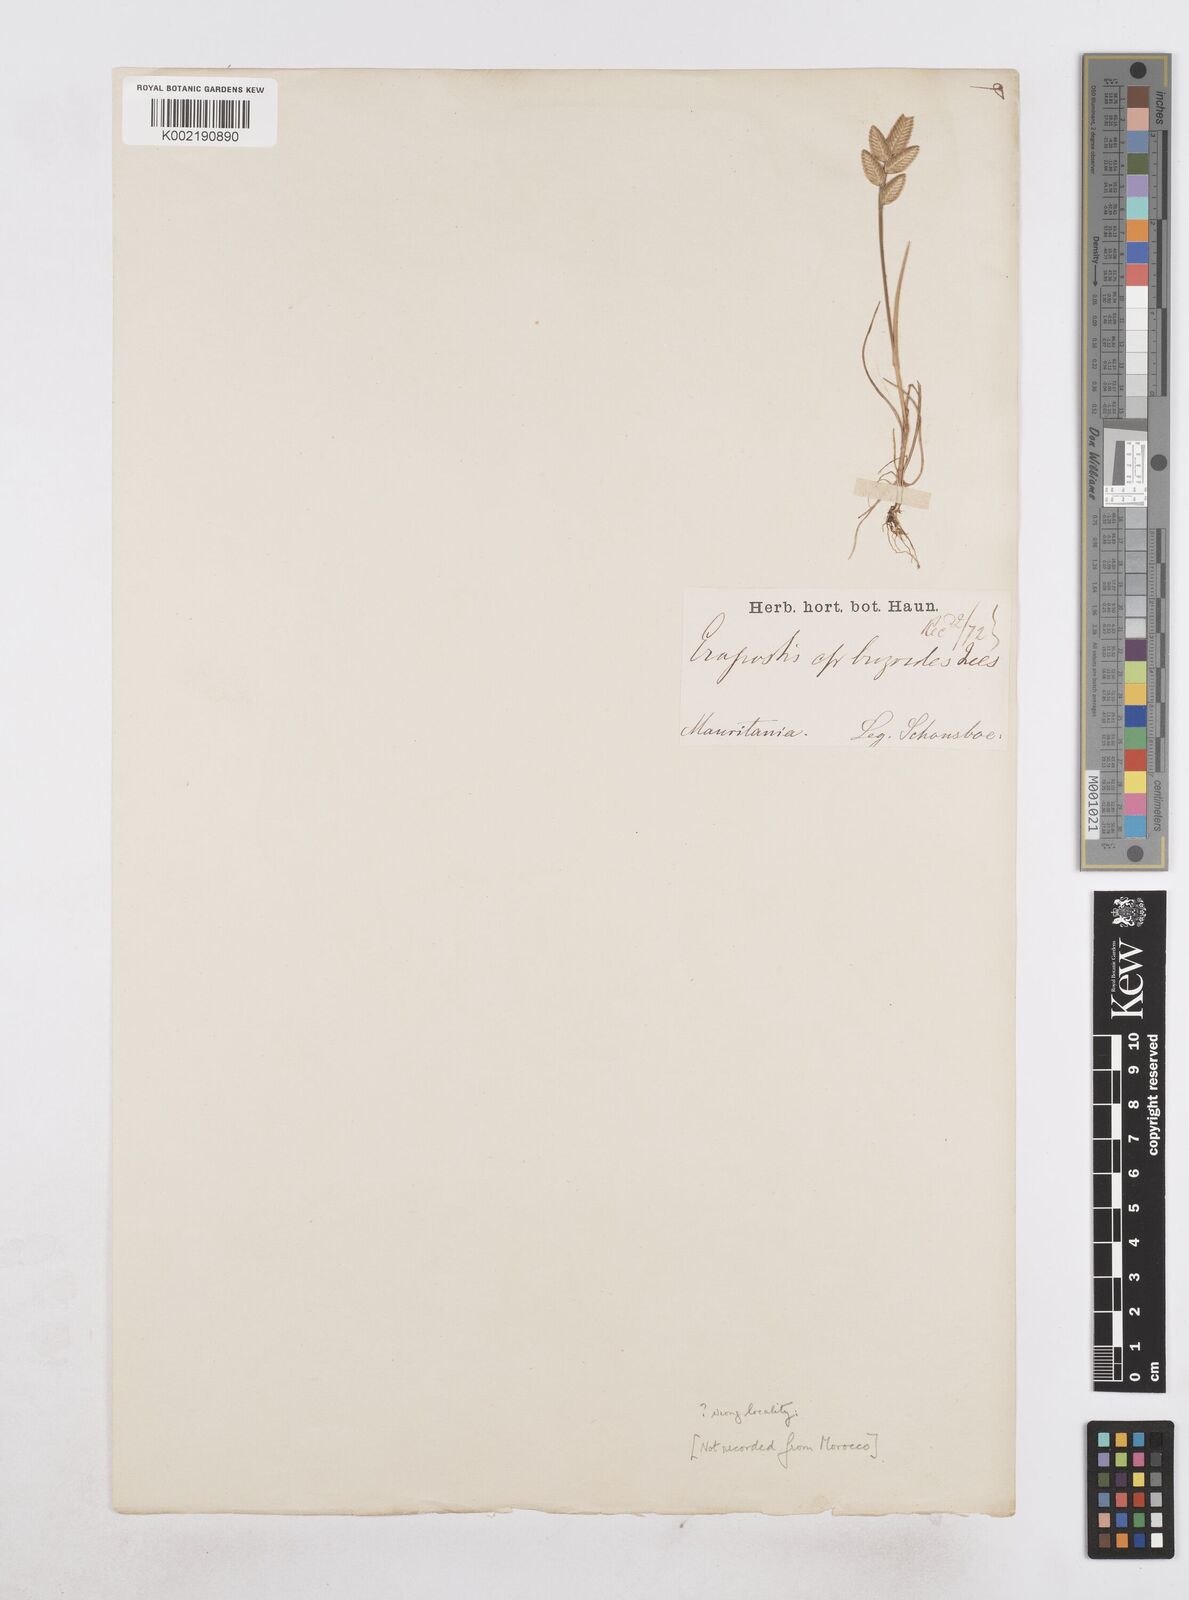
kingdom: Plantae
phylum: Tracheophyta
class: Liliopsida
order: Poales
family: Poaceae
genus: Desmazeria
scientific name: Desmazeria sicula
